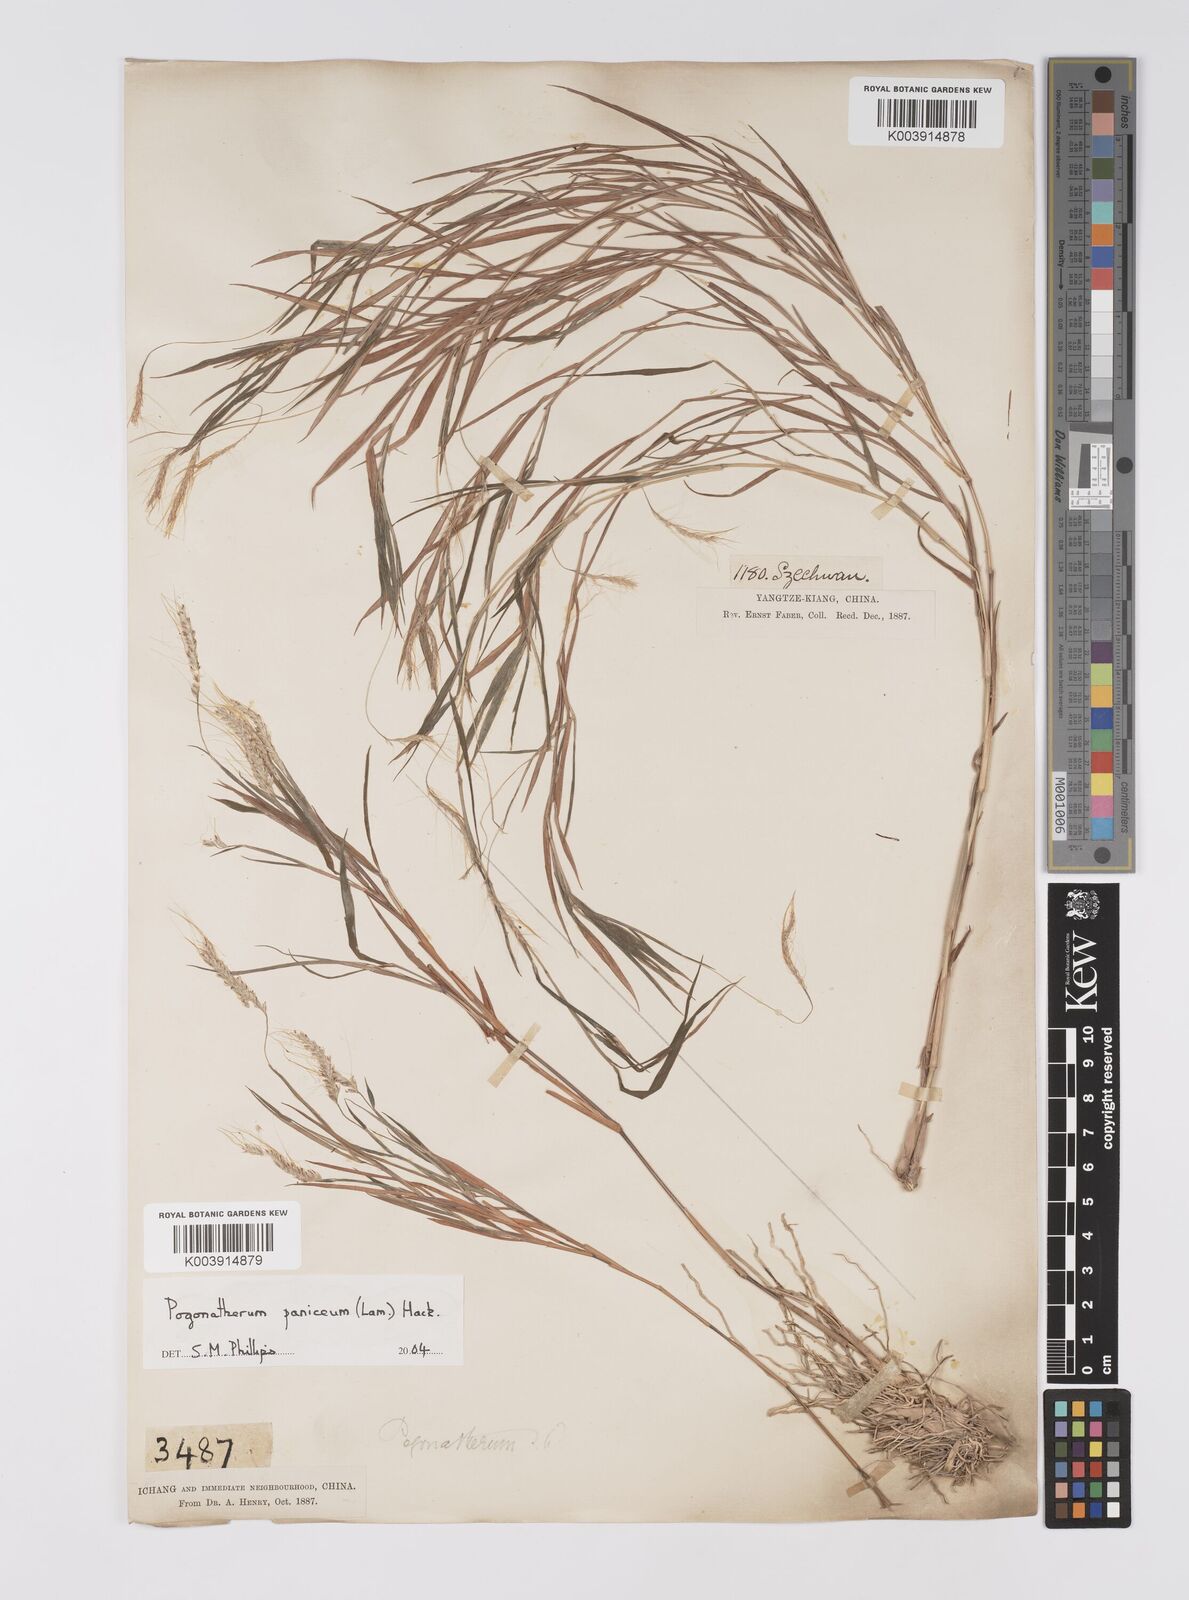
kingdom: Plantae
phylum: Tracheophyta
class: Liliopsida
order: Poales
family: Poaceae
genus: Pogonatherum
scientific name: Pogonatherum paniceum
